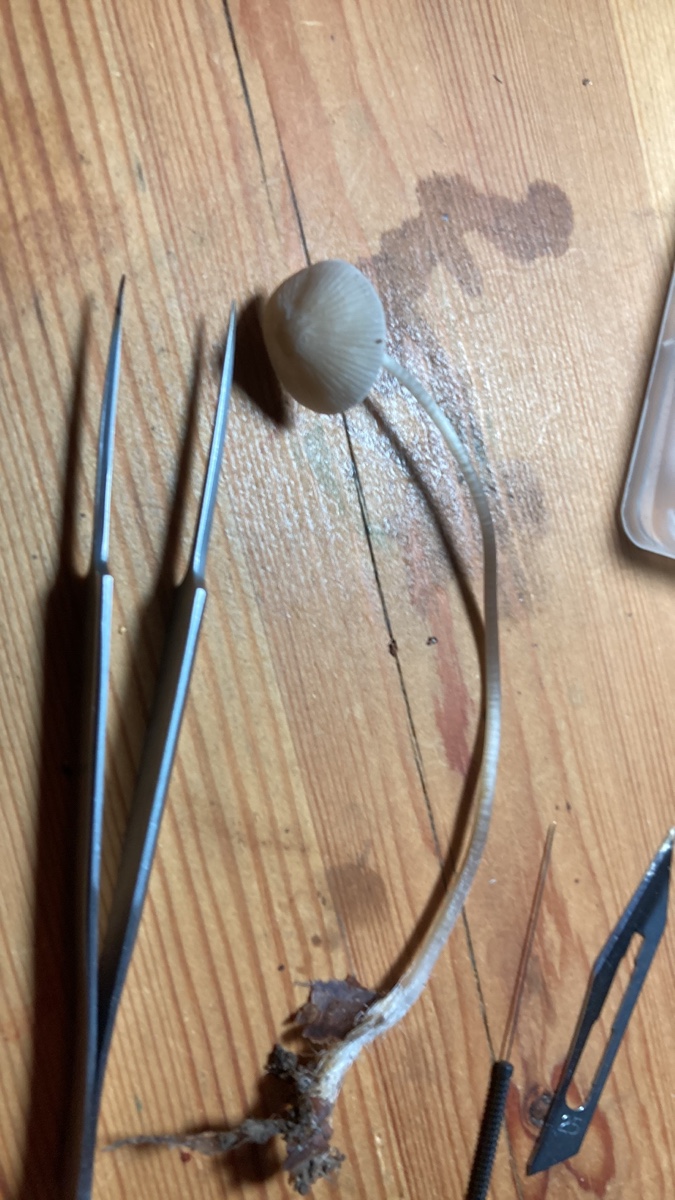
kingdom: Fungi
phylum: Basidiomycota
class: Agaricomycetes
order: Agaricales
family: Mycenaceae
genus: Mycena
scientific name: Mycena polygramma
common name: mangestribet huesvamp
